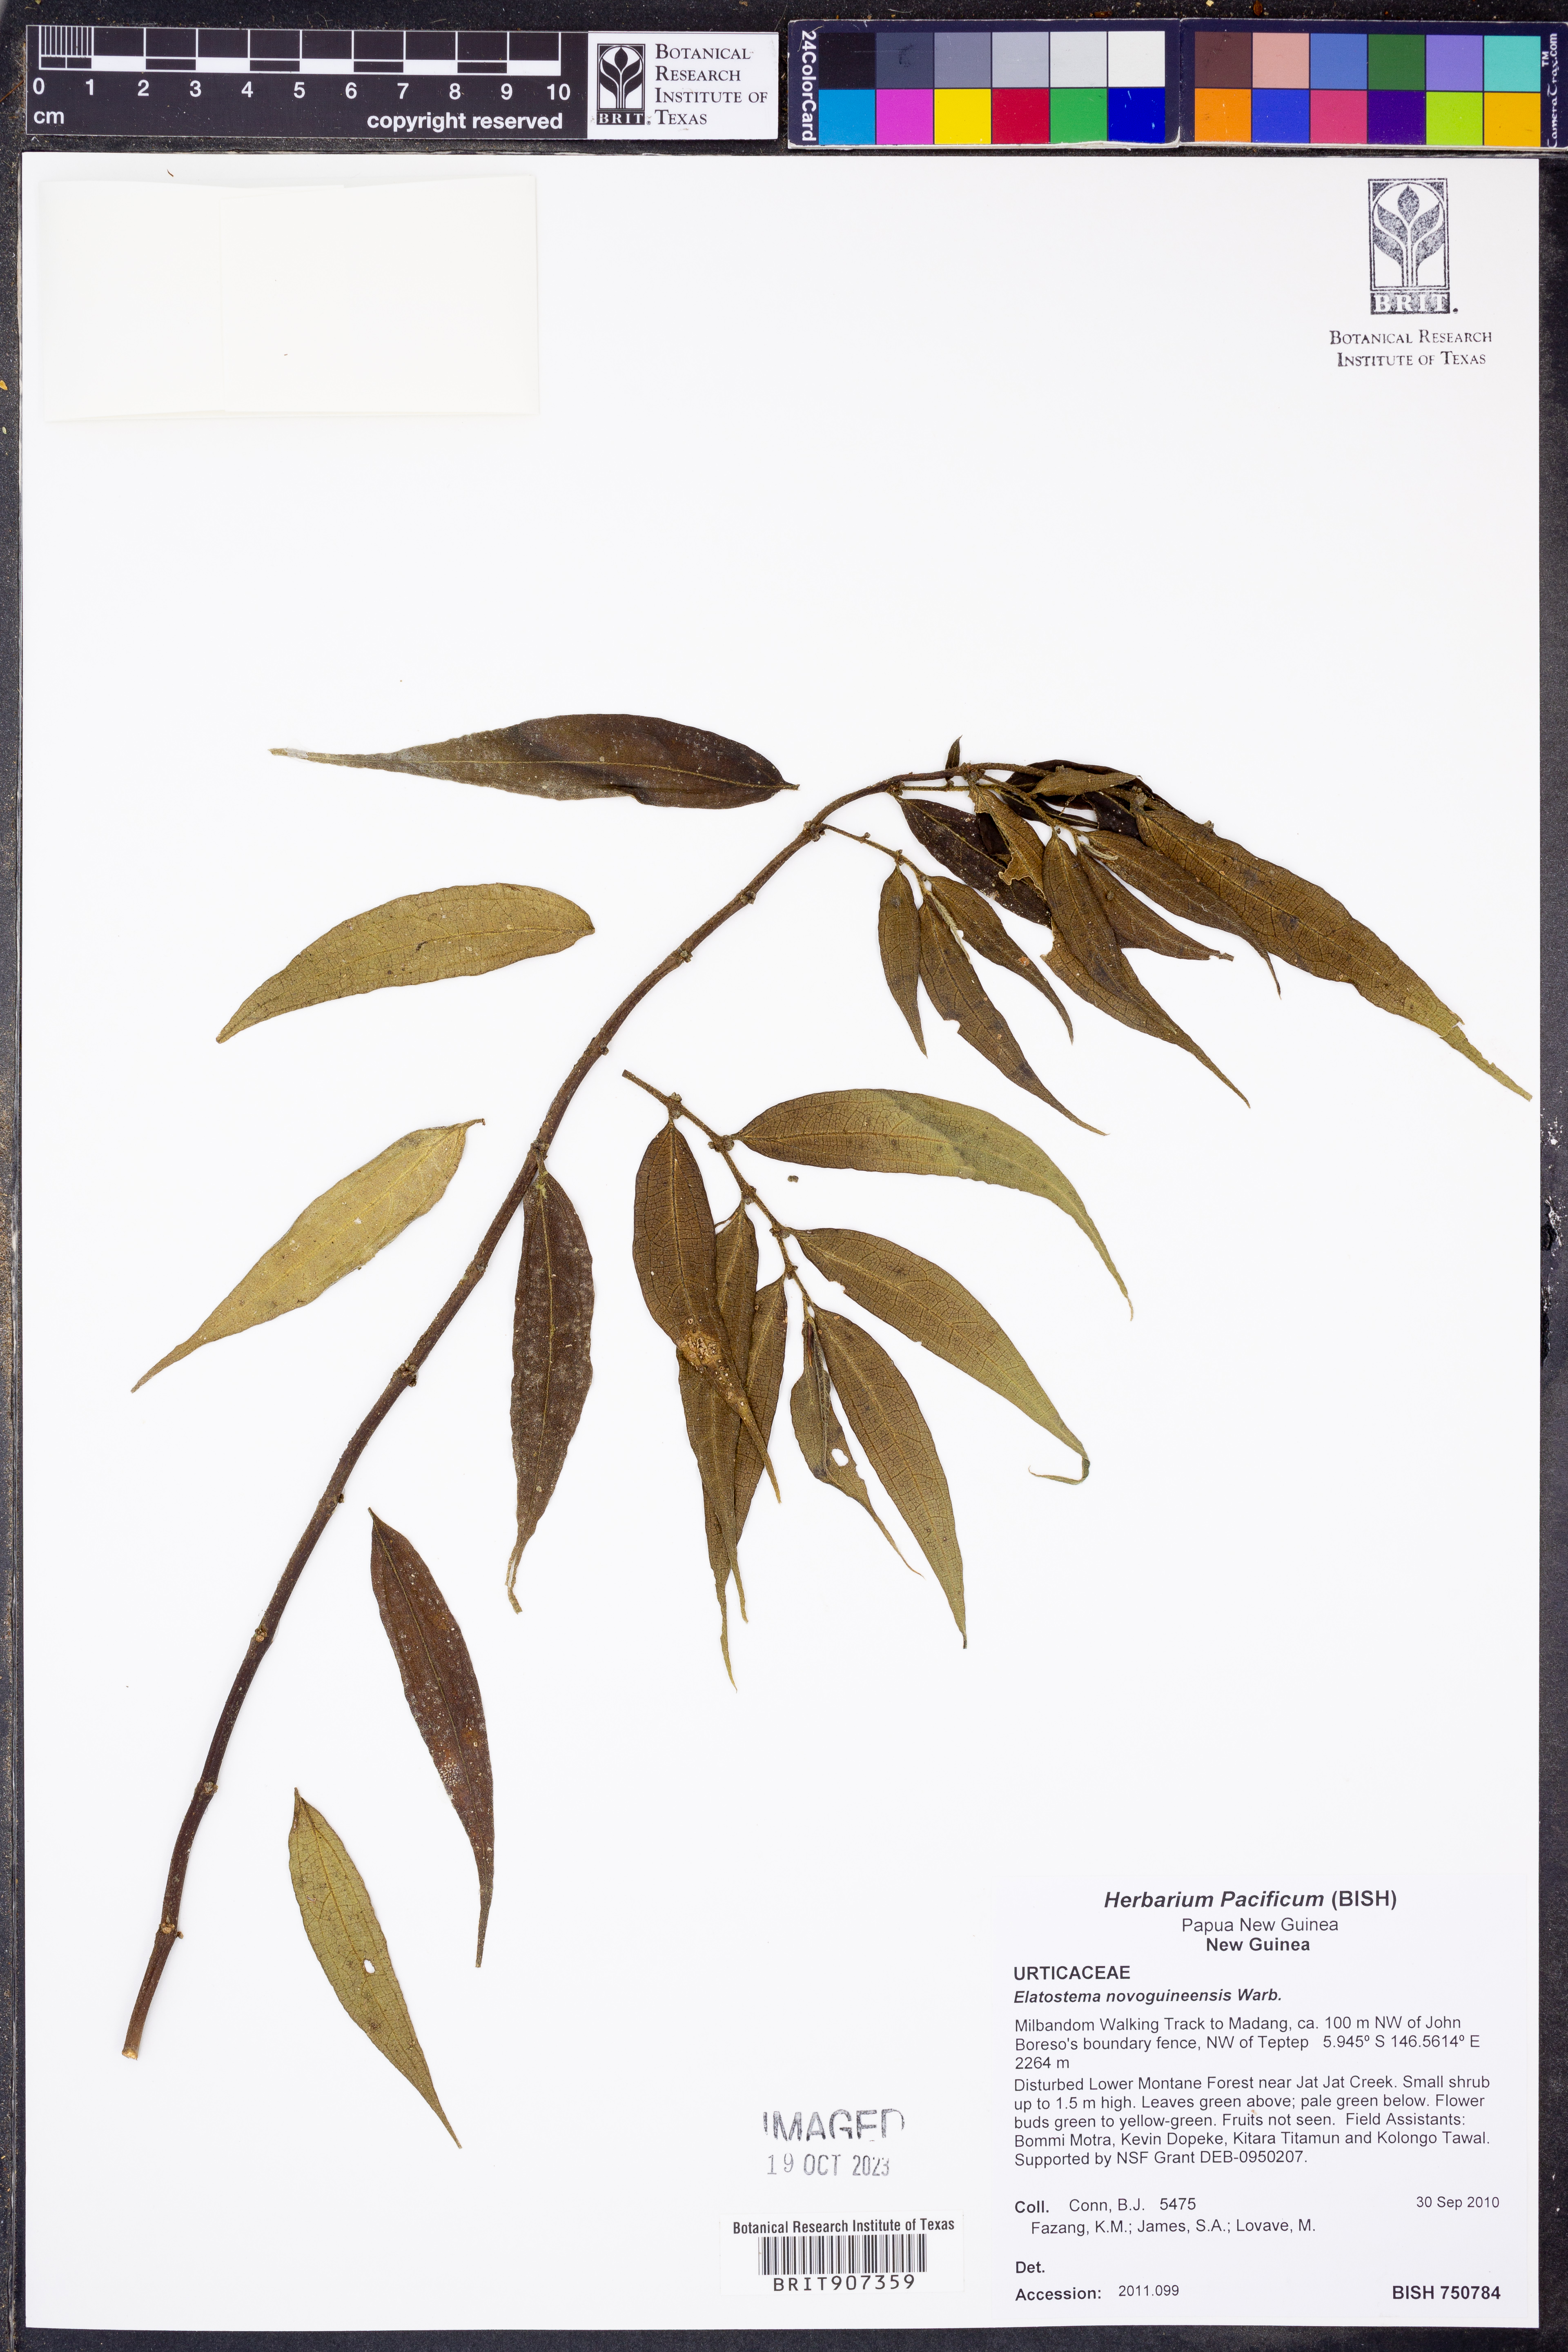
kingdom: Plantae
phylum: Tracheophyta
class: Magnoliopsida
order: Rosales
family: Urticaceae
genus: Elatostema
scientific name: Elatostema novoguineense
